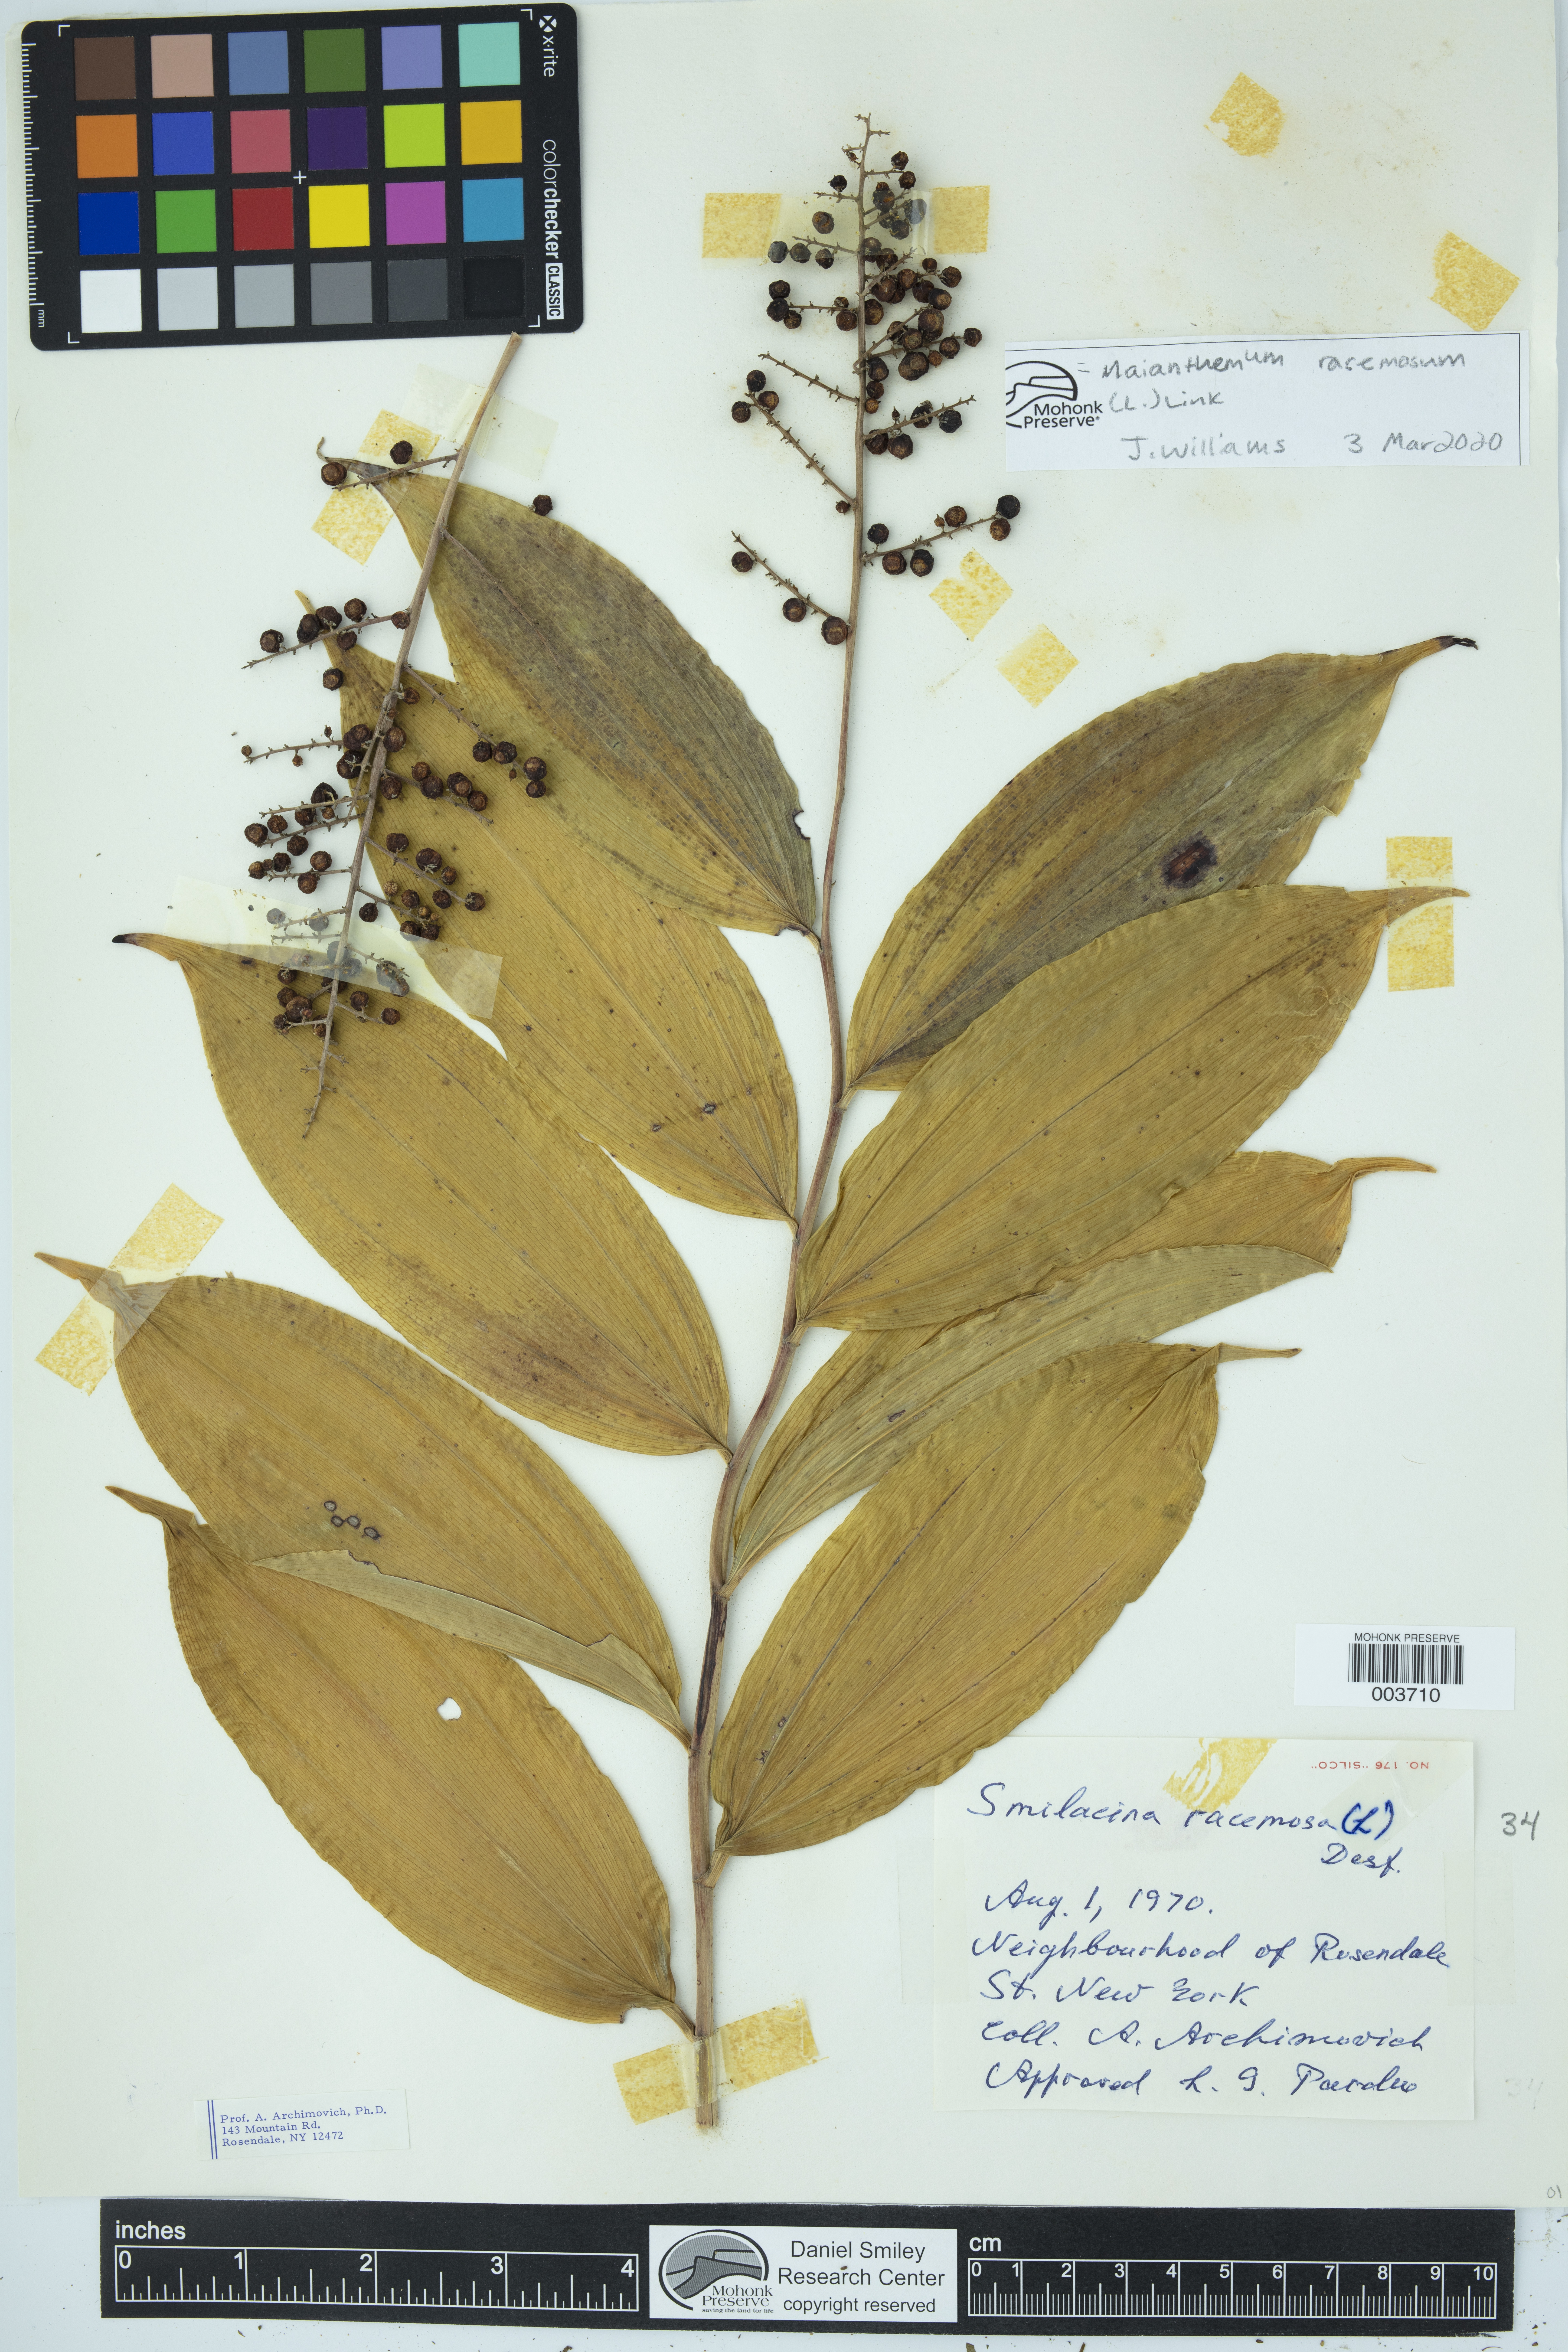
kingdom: Plantae
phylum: Tracheophyta
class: Liliopsida
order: Asparagales
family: Asparagaceae
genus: Maianthemum
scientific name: Maianthemum racemosum
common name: False spikenard
